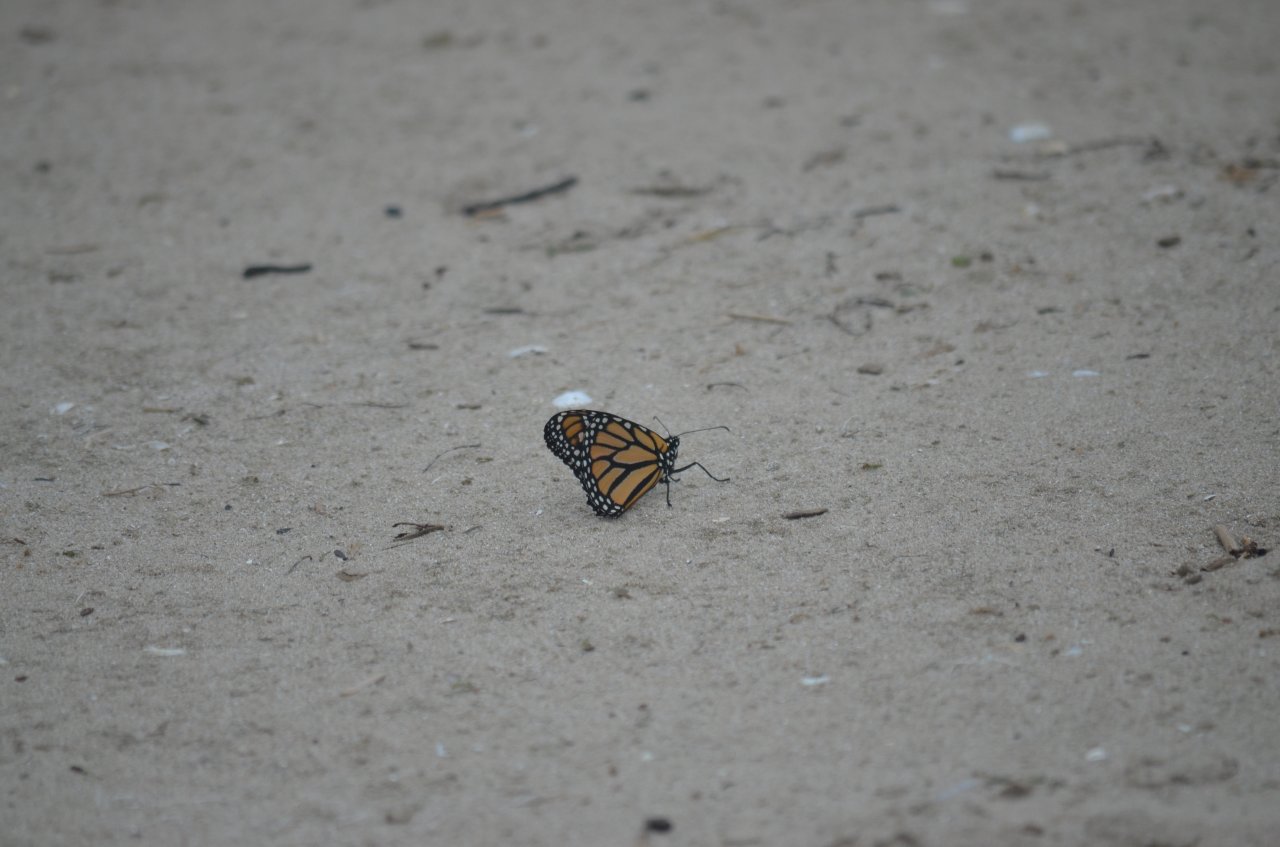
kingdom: Animalia
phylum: Arthropoda
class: Insecta
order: Lepidoptera
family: Nymphalidae
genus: Danaus
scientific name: Danaus plexippus
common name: Monarch
